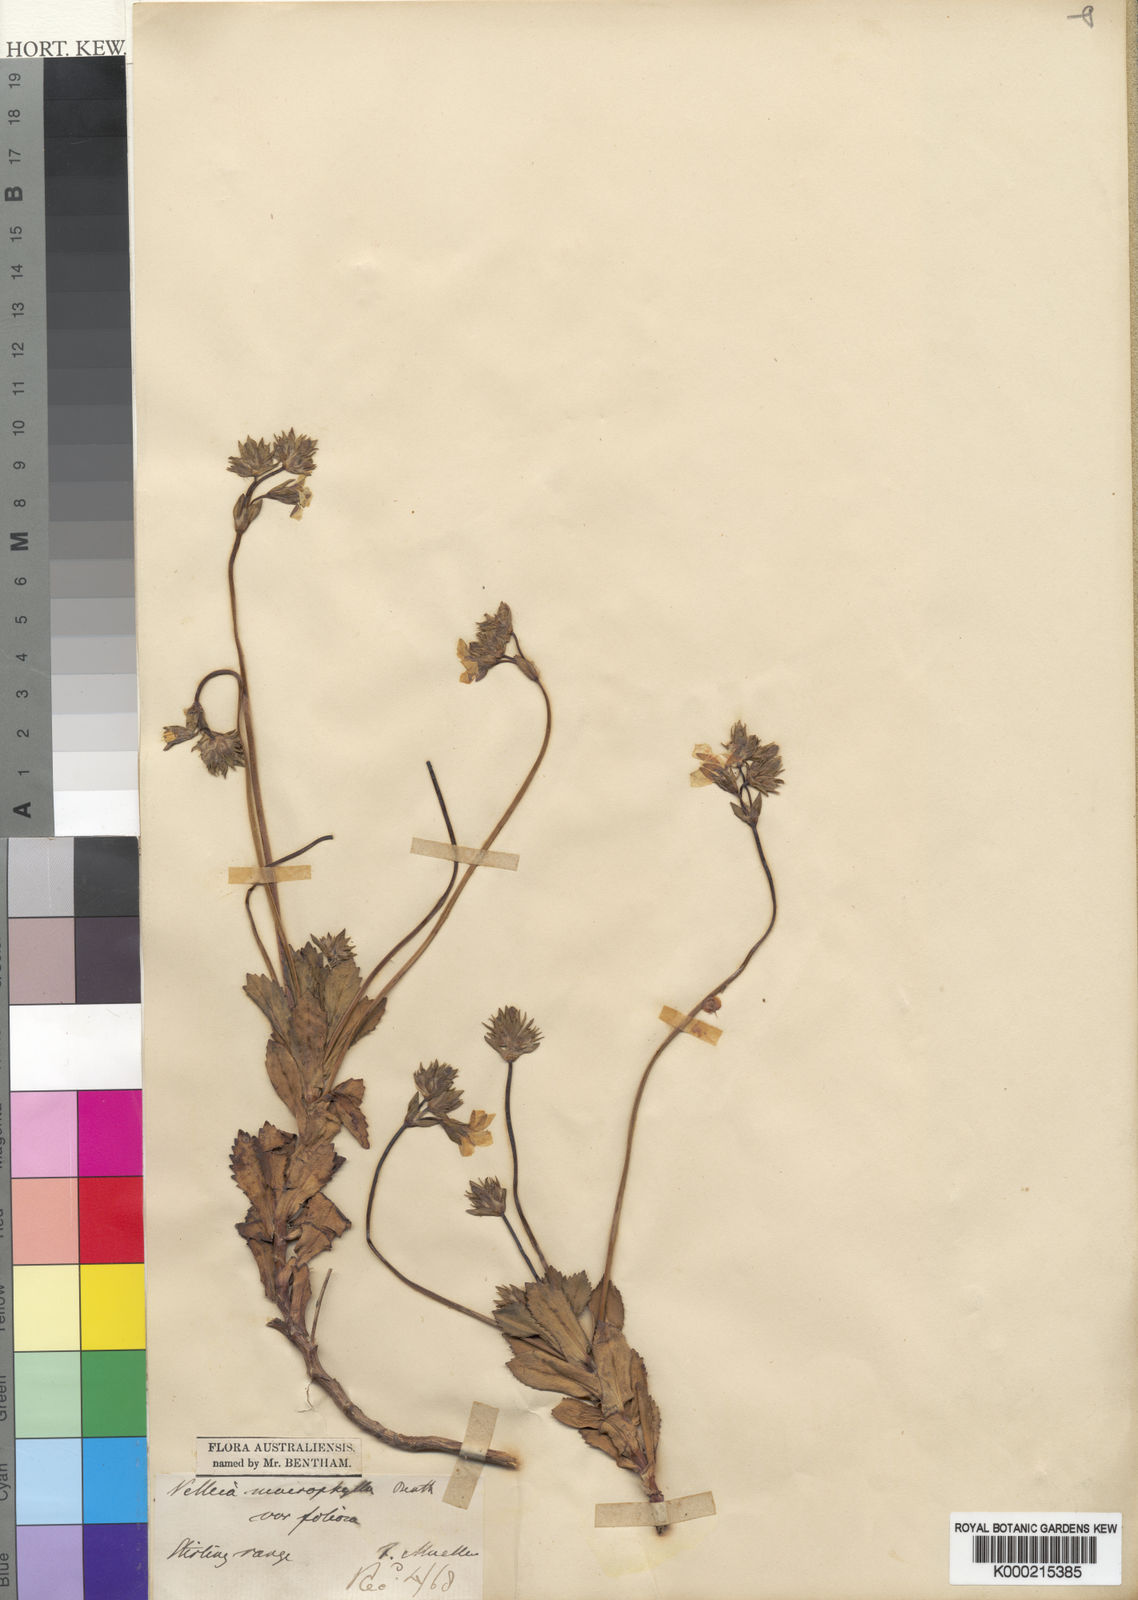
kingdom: Plantae
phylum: Tracheophyta
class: Magnoliopsida
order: Asterales
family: Goodeniaceae
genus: Goodenia
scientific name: Goodenia brendannarum
